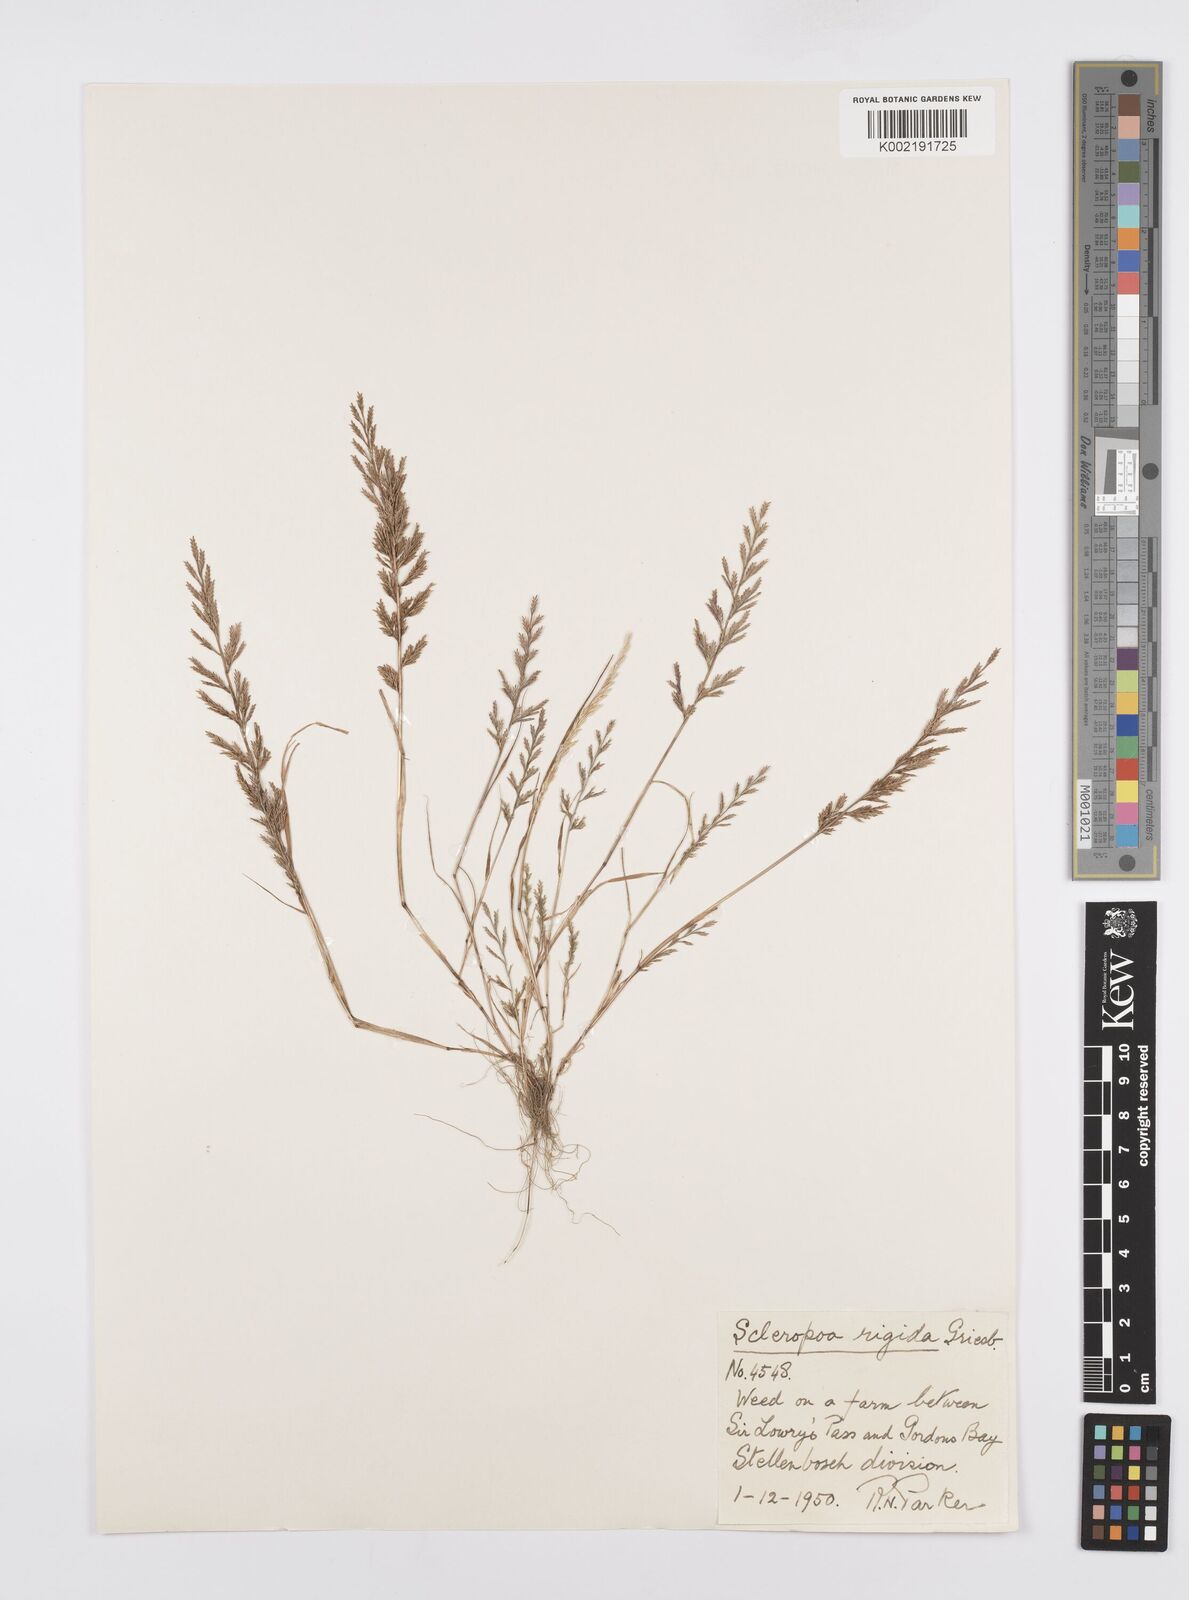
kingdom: Plantae
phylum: Tracheophyta
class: Liliopsida
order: Poales
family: Poaceae
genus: Catapodium
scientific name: Catapodium rigidum
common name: Fern-grass
